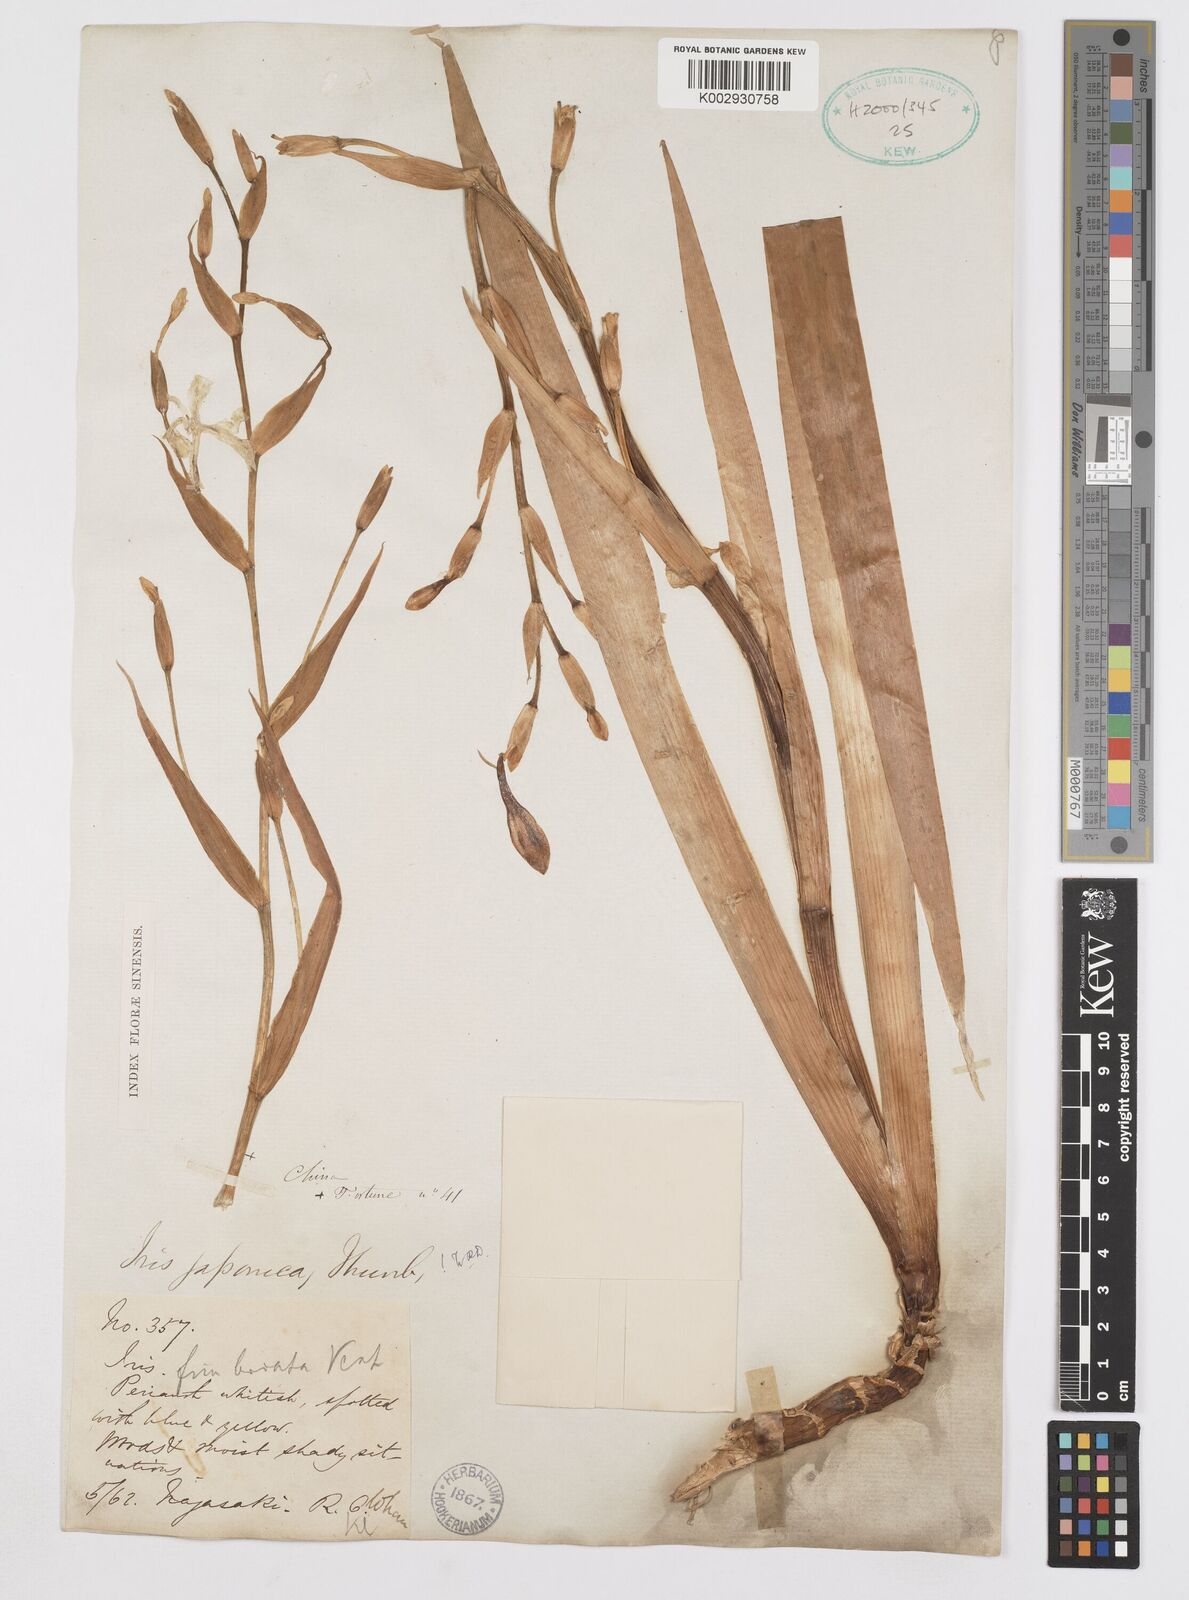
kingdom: Plantae
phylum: Tracheophyta
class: Liliopsida
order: Asparagales
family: Iridaceae
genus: Iris
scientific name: Iris japonica
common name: Butterfly-flower
